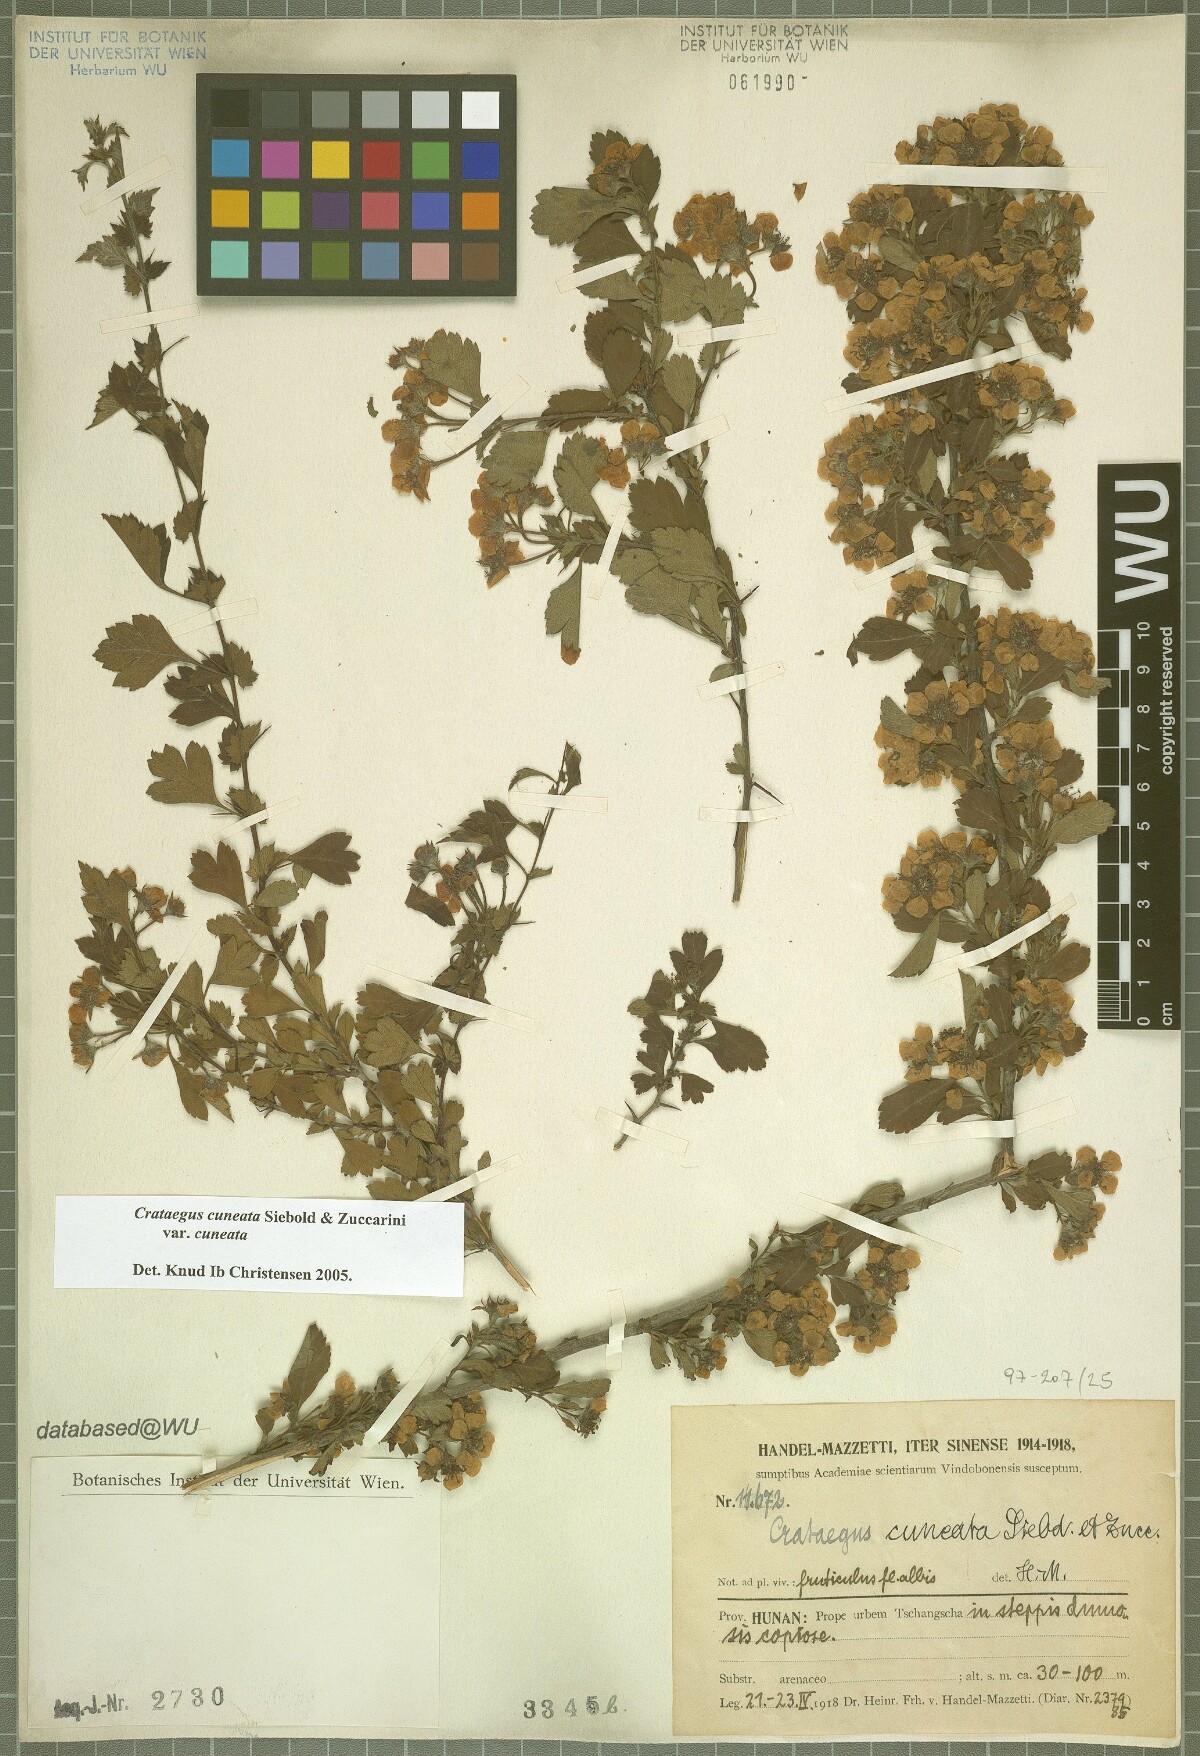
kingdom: Plantae
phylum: Tracheophyta
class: Magnoliopsida
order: Rosales
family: Rosaceae
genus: Crataegus
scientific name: Crataegus cuneata
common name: Chinese hawthorn
